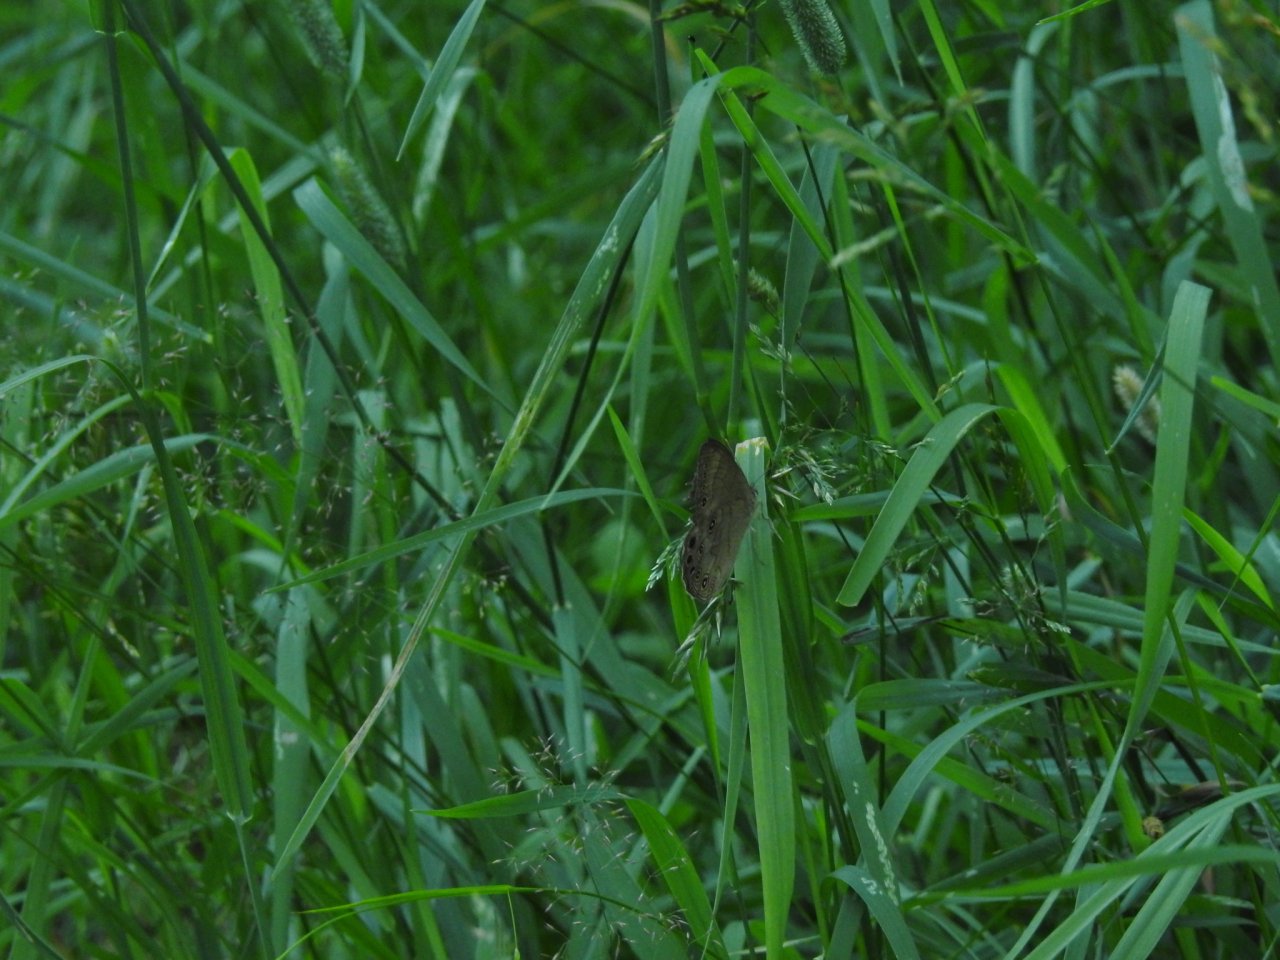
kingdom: Animalia
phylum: Arthropoda
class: Insecta
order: Lepidoptera
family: Nymphalidae
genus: Lethe
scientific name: Lethe eurydice
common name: Appalachian Eyed Brown
